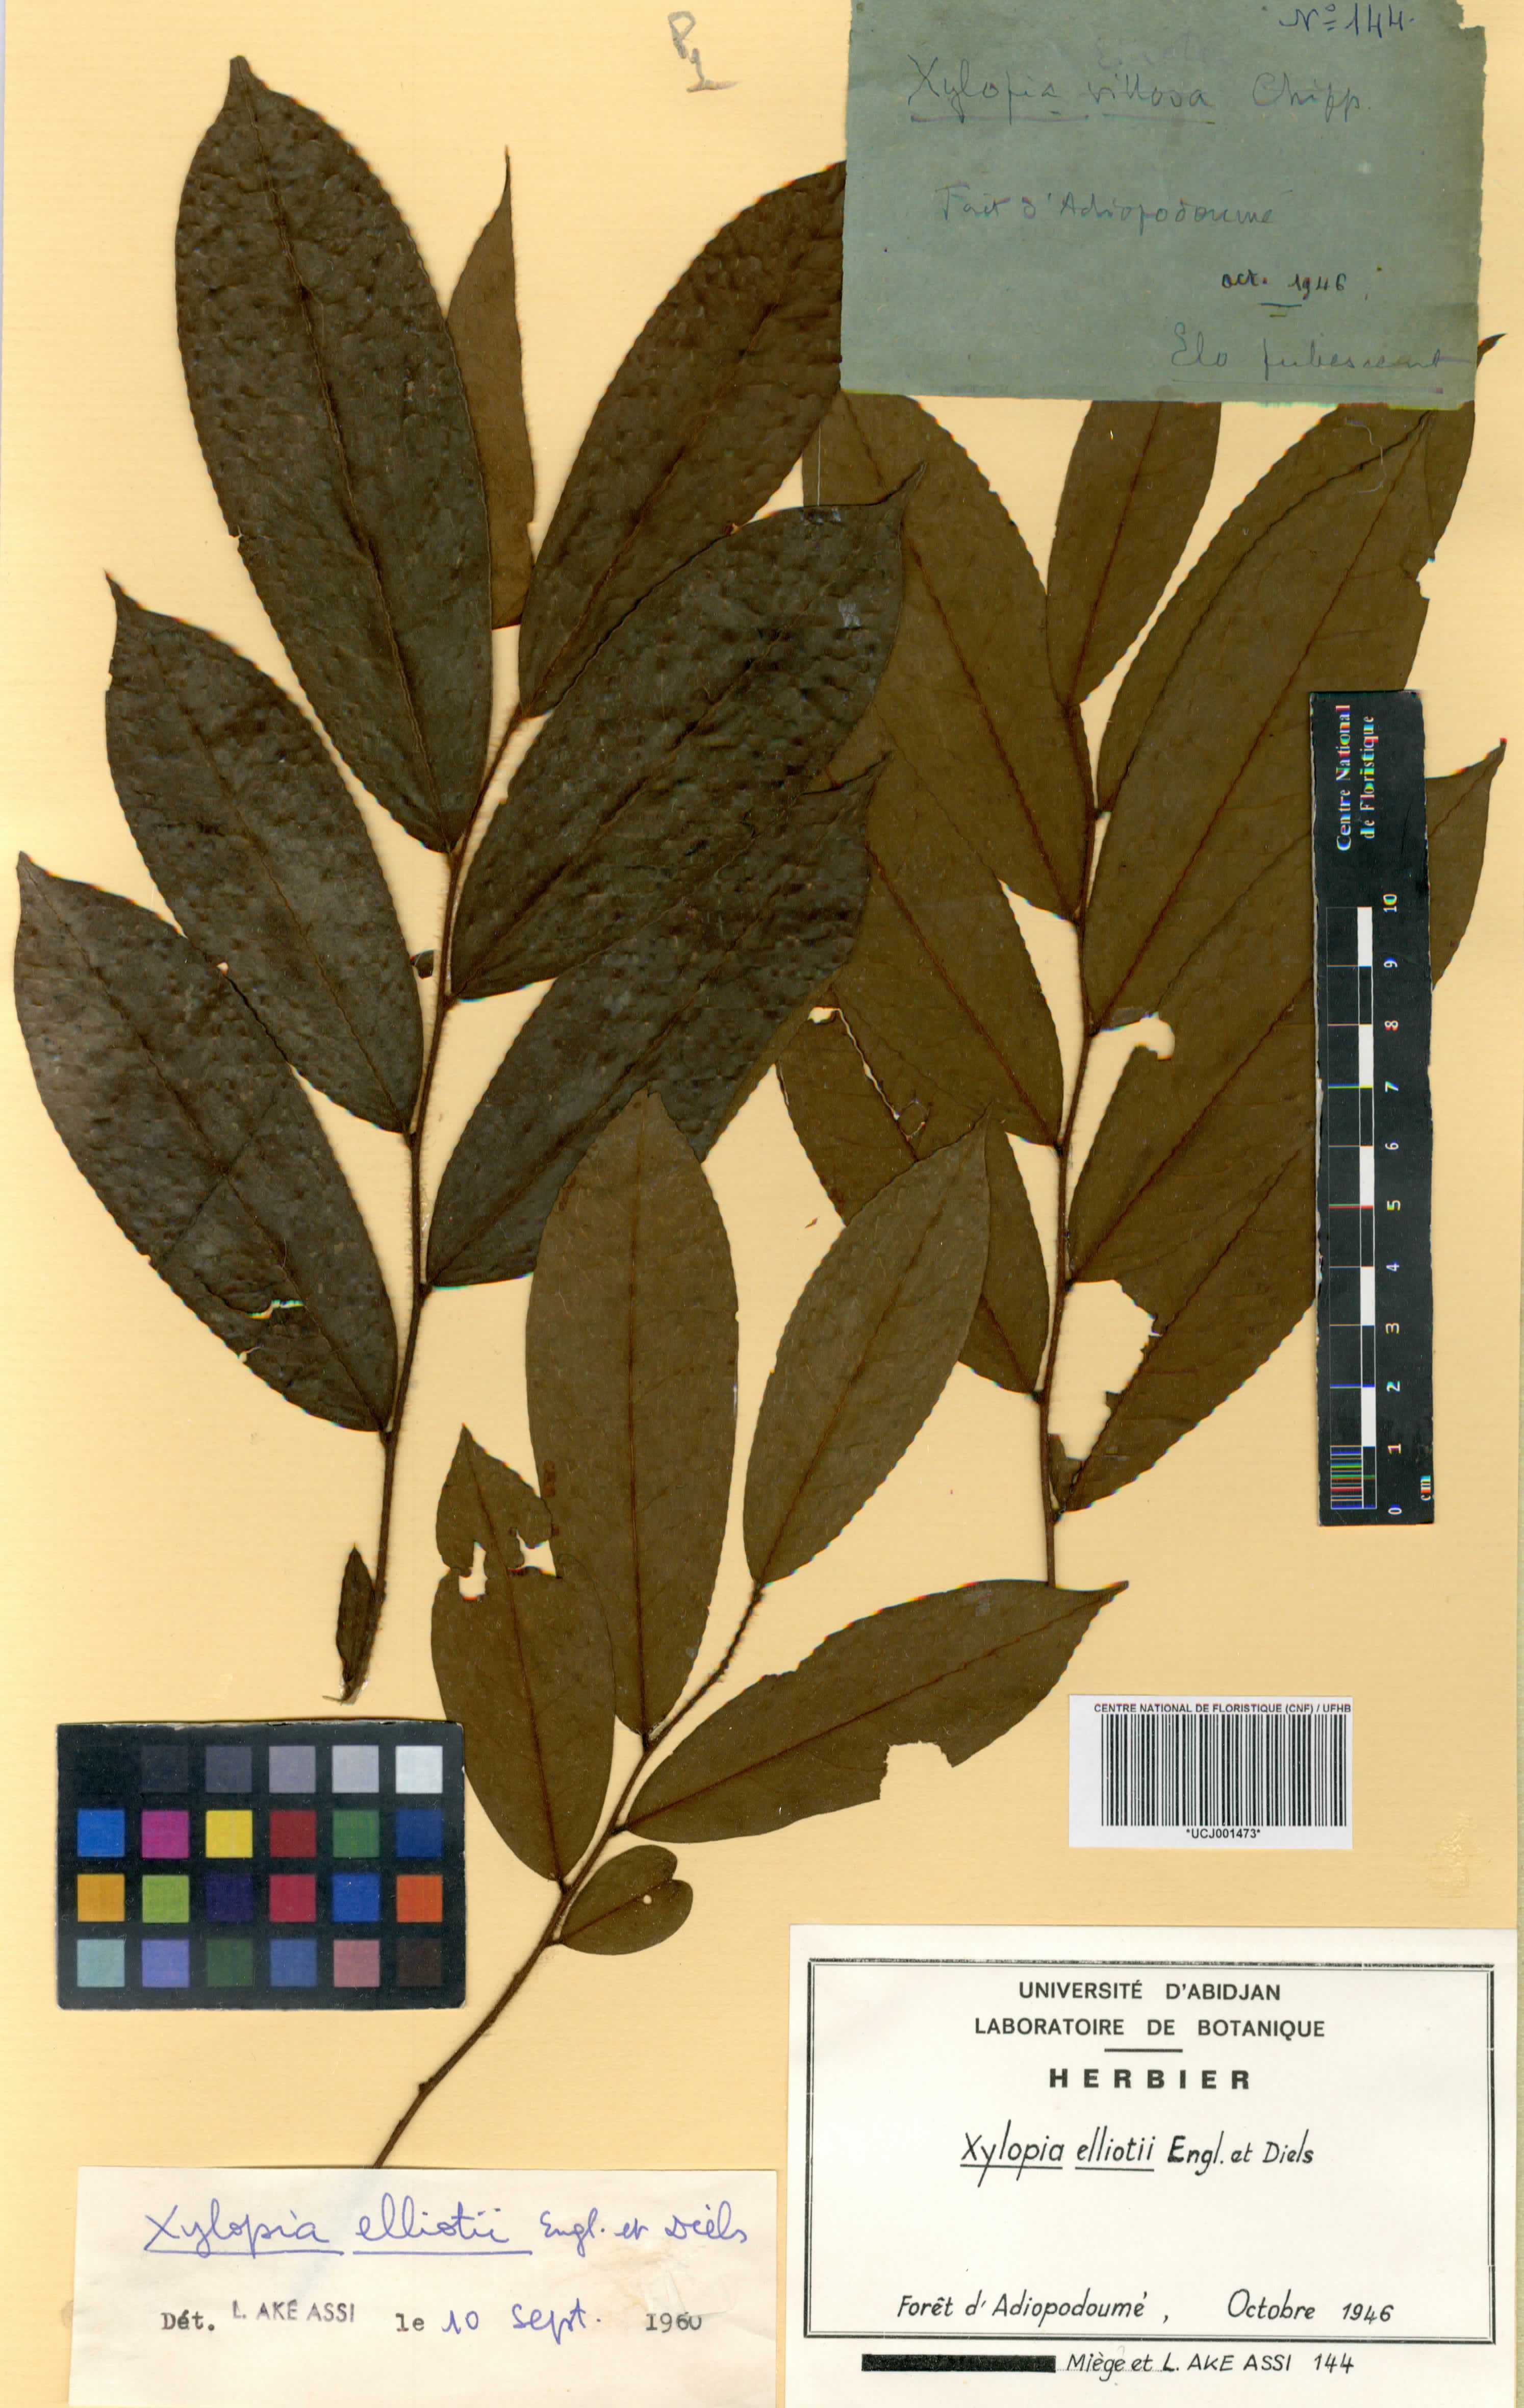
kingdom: Plantae
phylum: Tracheophyta
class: Magnoliopsida
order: Magnoliales
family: Annonaceae
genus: Xylopia
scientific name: Xylopia elliotii
